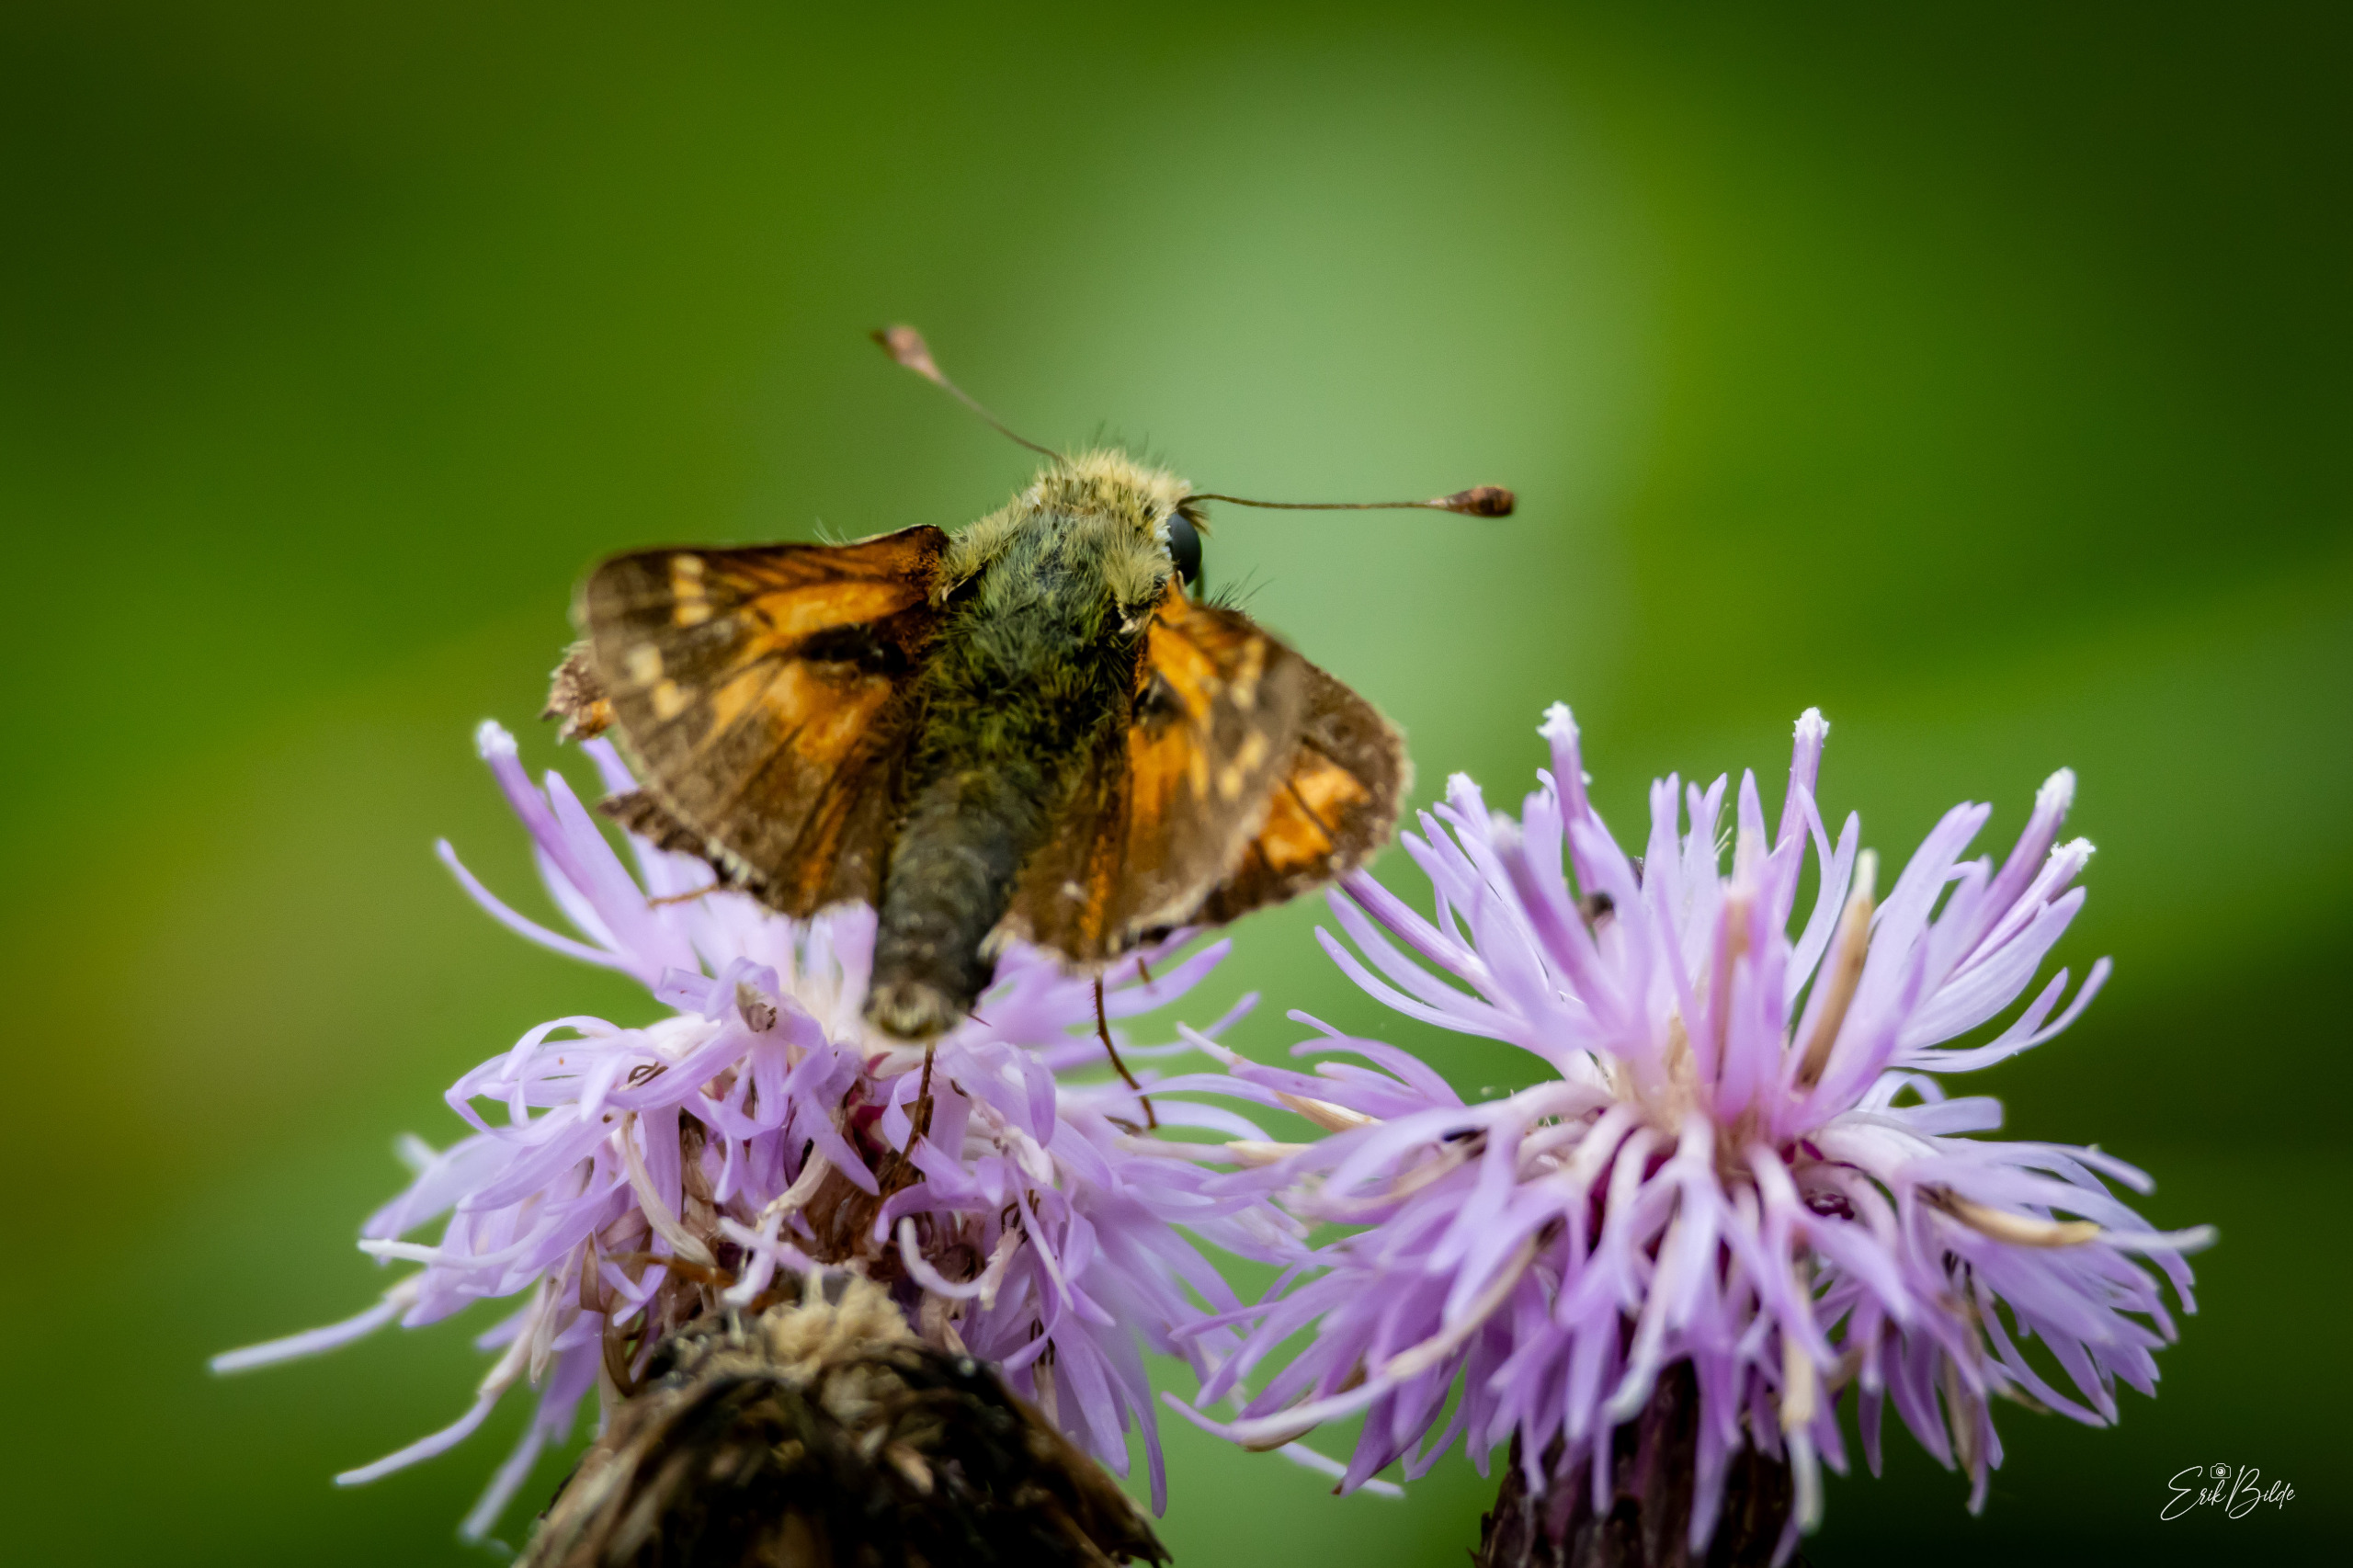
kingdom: Animalia
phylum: Arthropoda
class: Insecta
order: Lepidoptera
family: Hesperiidae
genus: Hesperia
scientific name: Hesperia comma
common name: Kommabredpande
